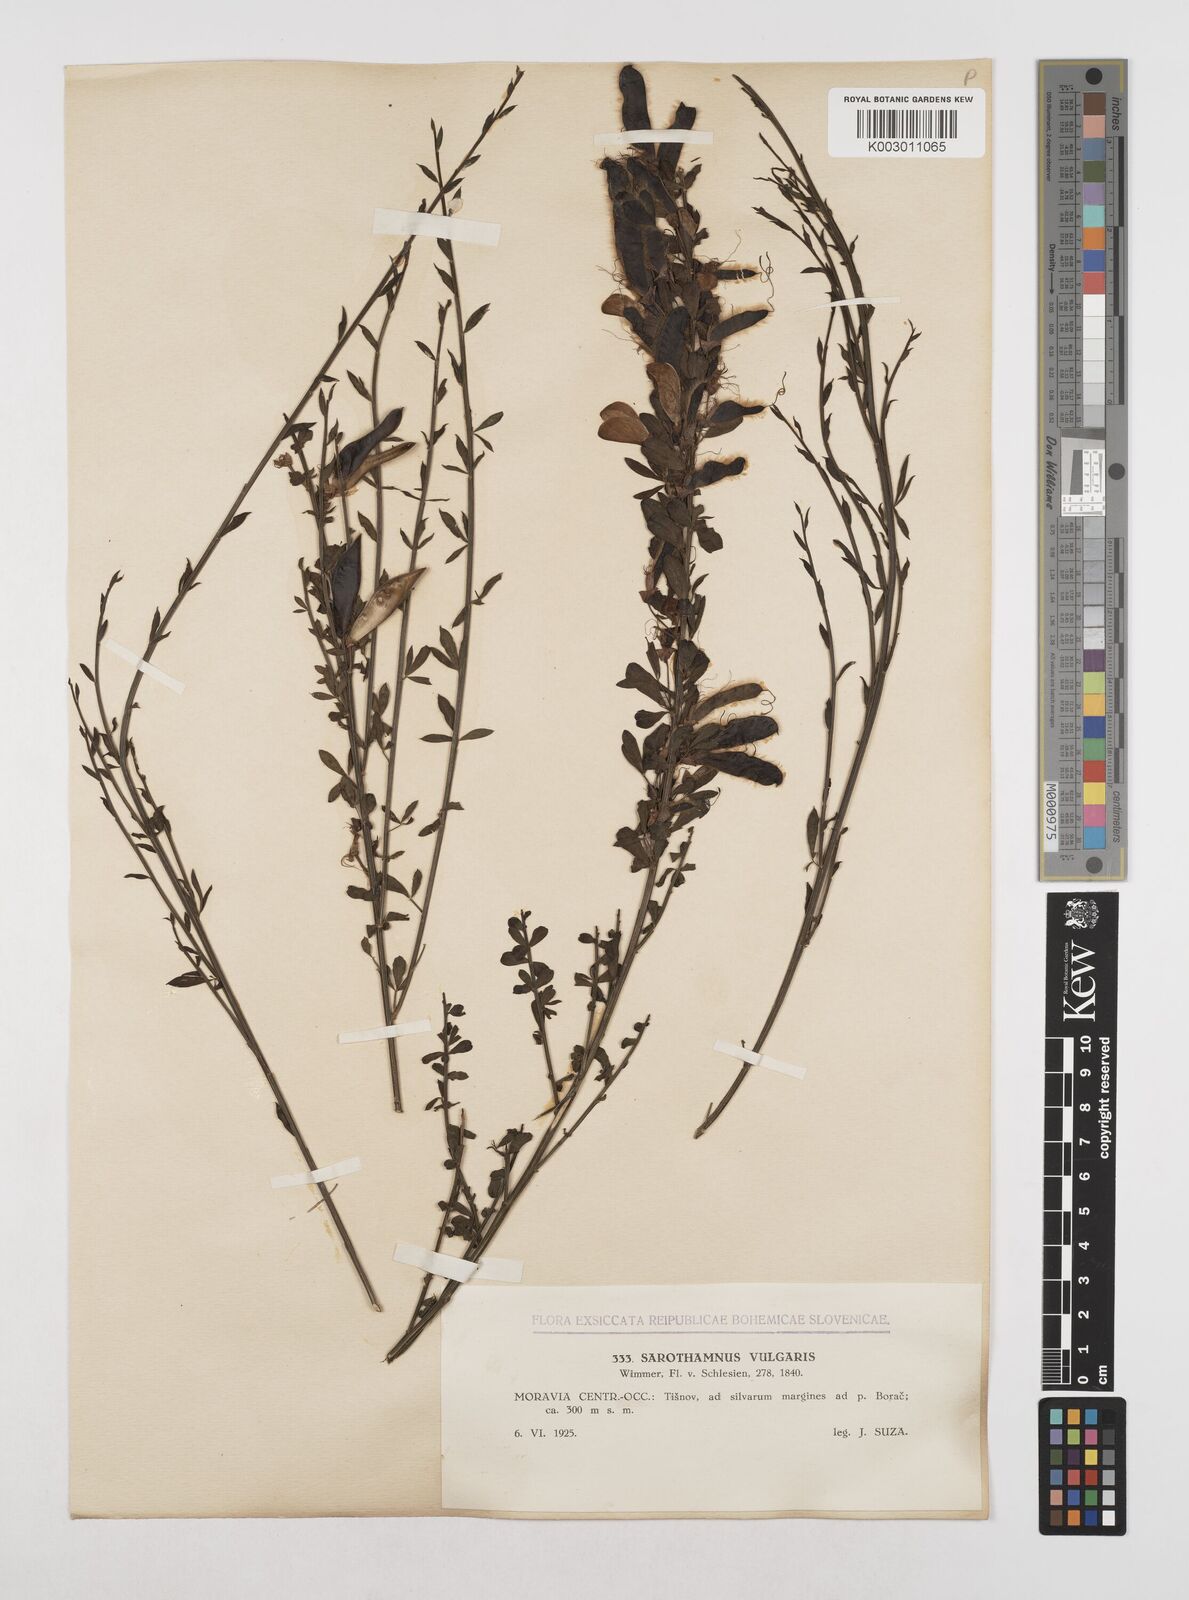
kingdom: Plantae
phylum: Tracheophyta
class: Magnoliopsida
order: Fabales
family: Fabaceae
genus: Cytisus
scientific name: Cytisus scoparius
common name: Scotch broom
